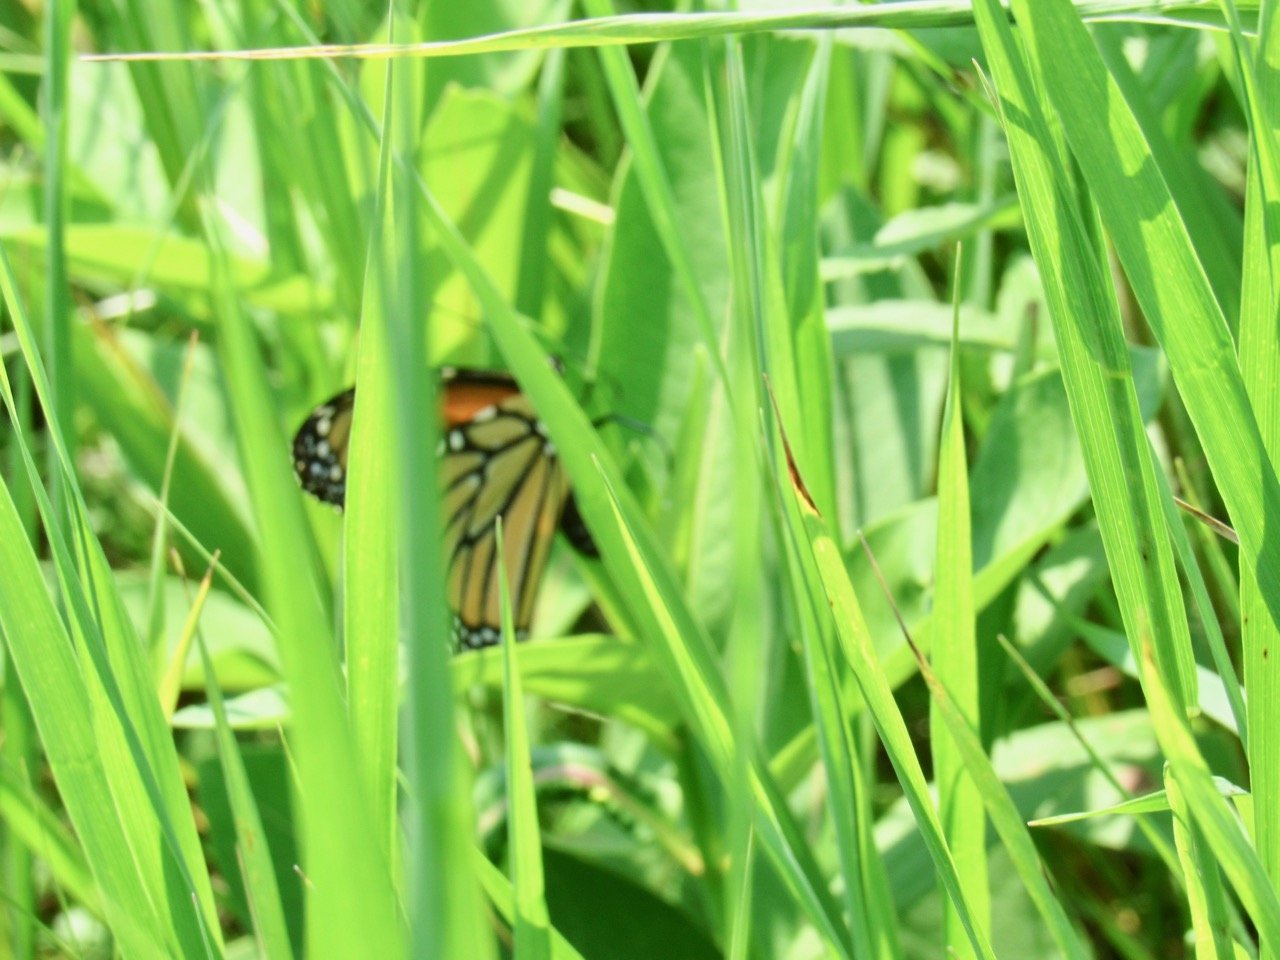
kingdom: Animalia
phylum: Arthropoda
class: Insecta
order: Lepidoptera
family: Nymphalidae
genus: Danaus
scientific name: Danaus plexippus
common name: Monarch
